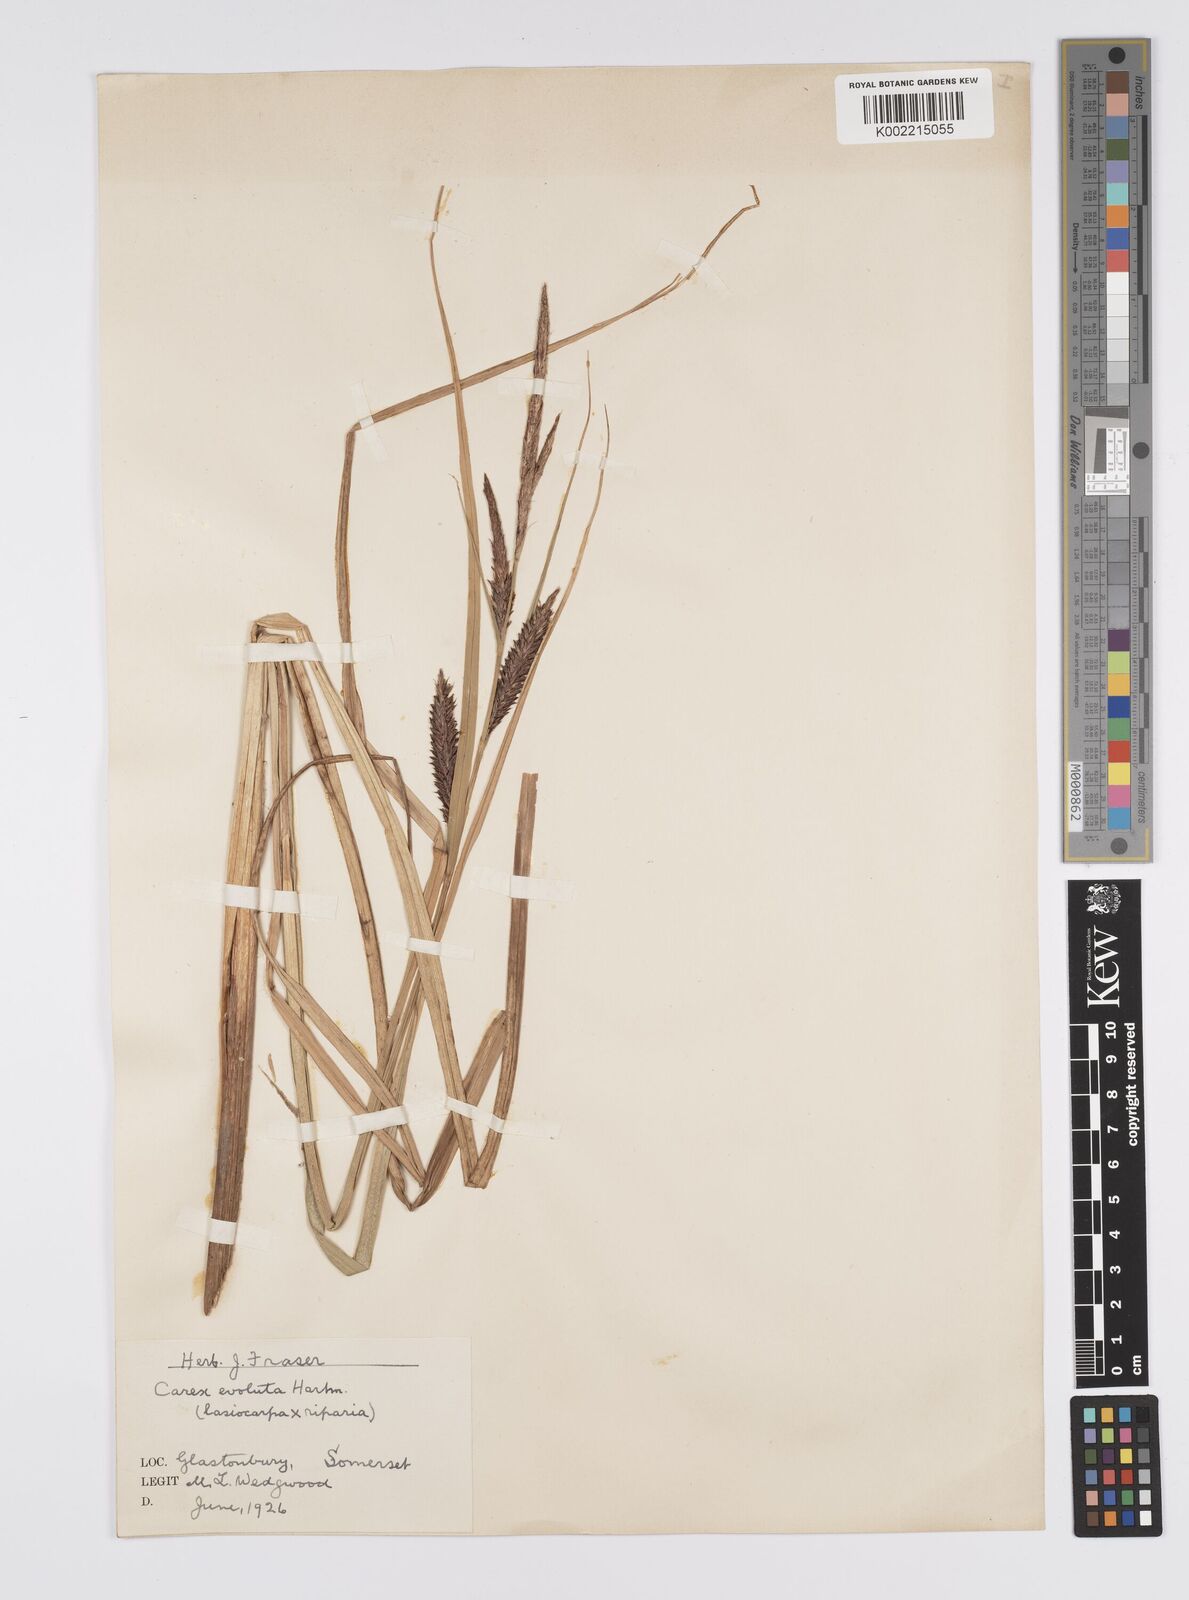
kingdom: Plantae
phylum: Tracheophyta
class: Liliopsida
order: Poales
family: Cyperaceae
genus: Carex
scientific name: Carex evoluta
